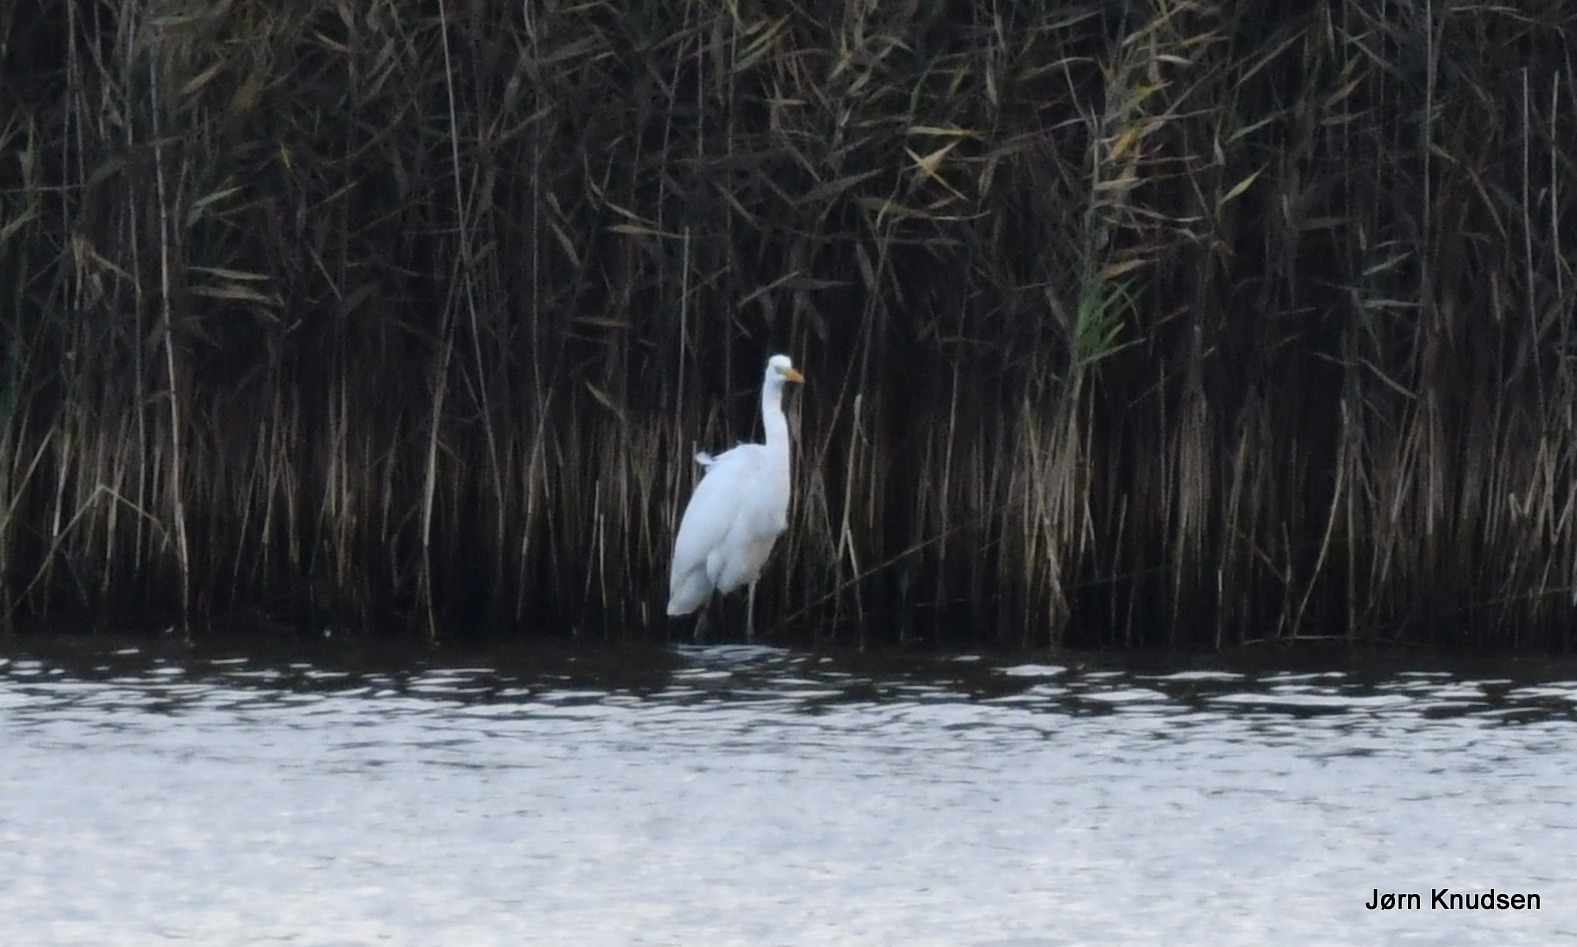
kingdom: Animalia
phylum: Chordata
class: Aves
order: Pelecaniformes
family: Ardeidae
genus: Ardea
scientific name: Ardea alba
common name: Sølvhejre
